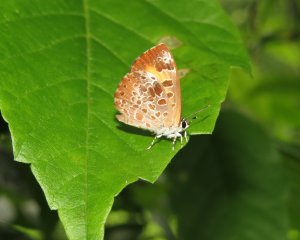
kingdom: Animalia
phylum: Arthropoda
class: Insecta
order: Lepidoptera
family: Lycaenidae
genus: Feniseca
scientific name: Feniseca tarquinius
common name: Harvester
